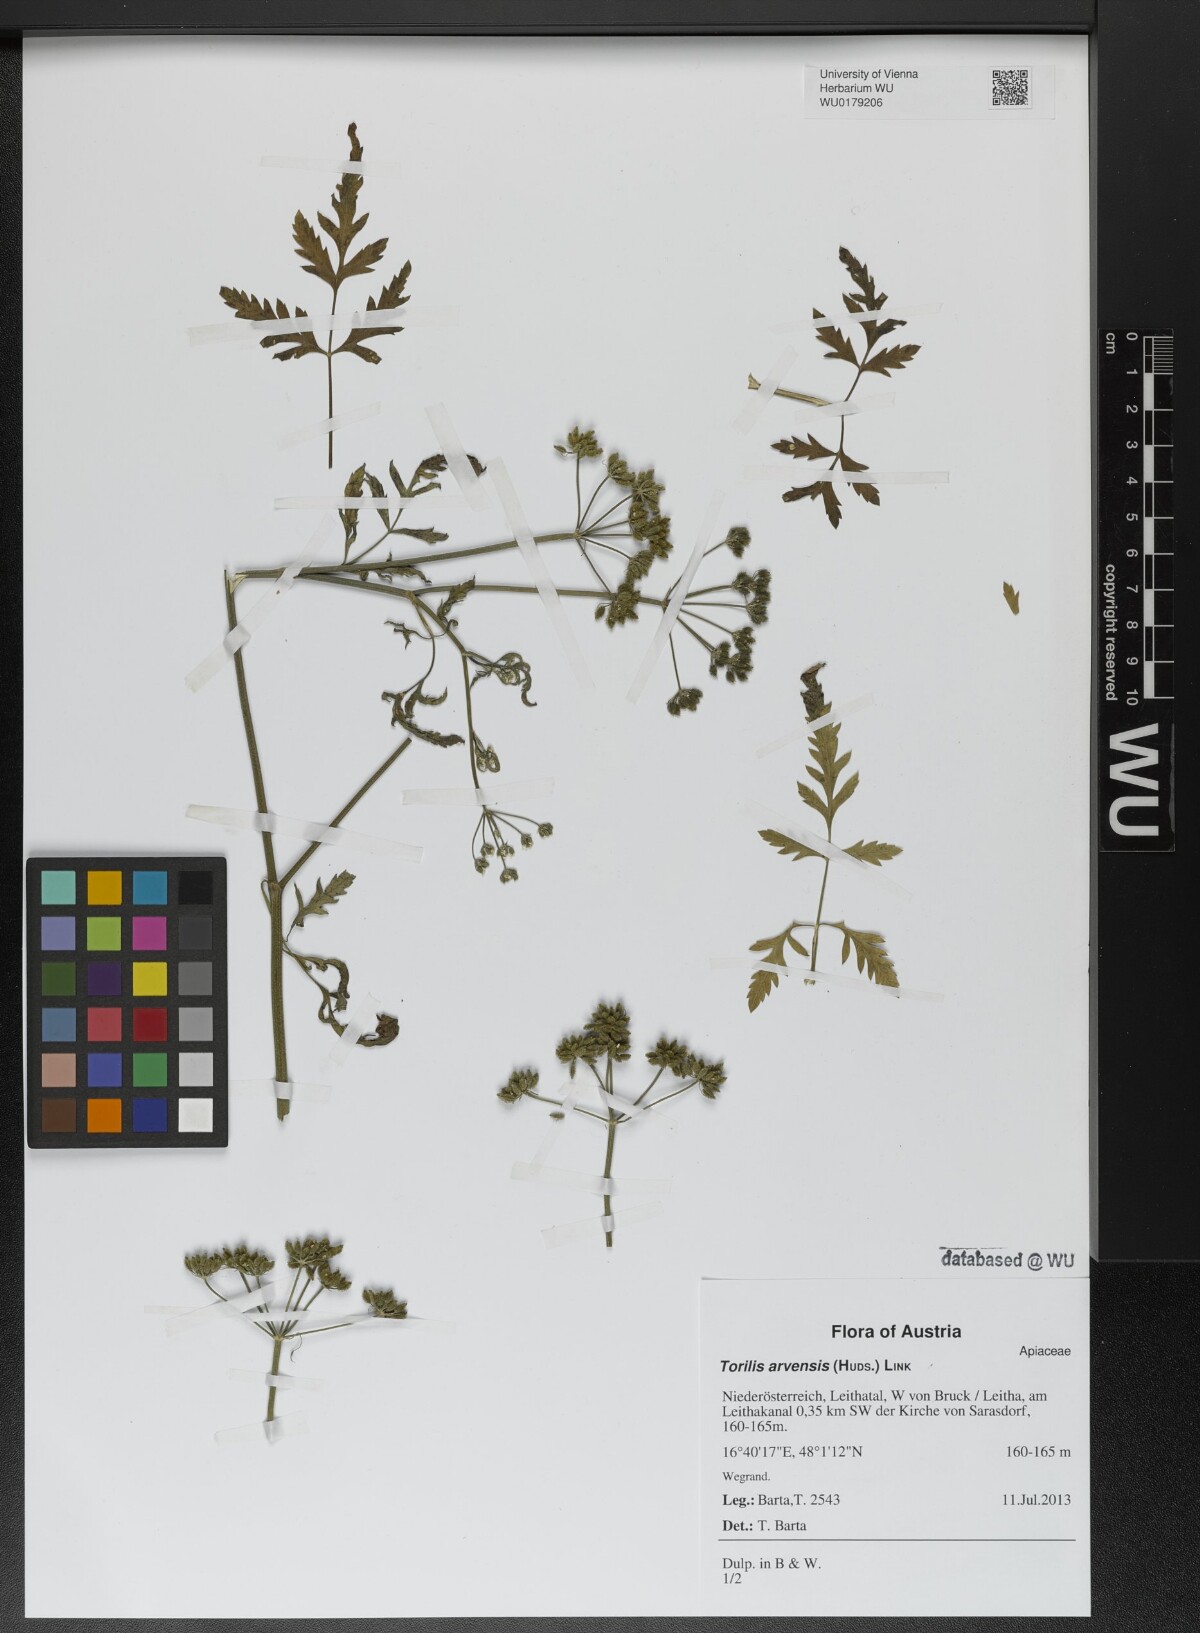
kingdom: Plantae
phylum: Tracheophyta
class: Magnoliopsida
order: Apiales
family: Apiaceae
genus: Torilis
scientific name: Torilis arvensis
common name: Spreading hedge-parsley
